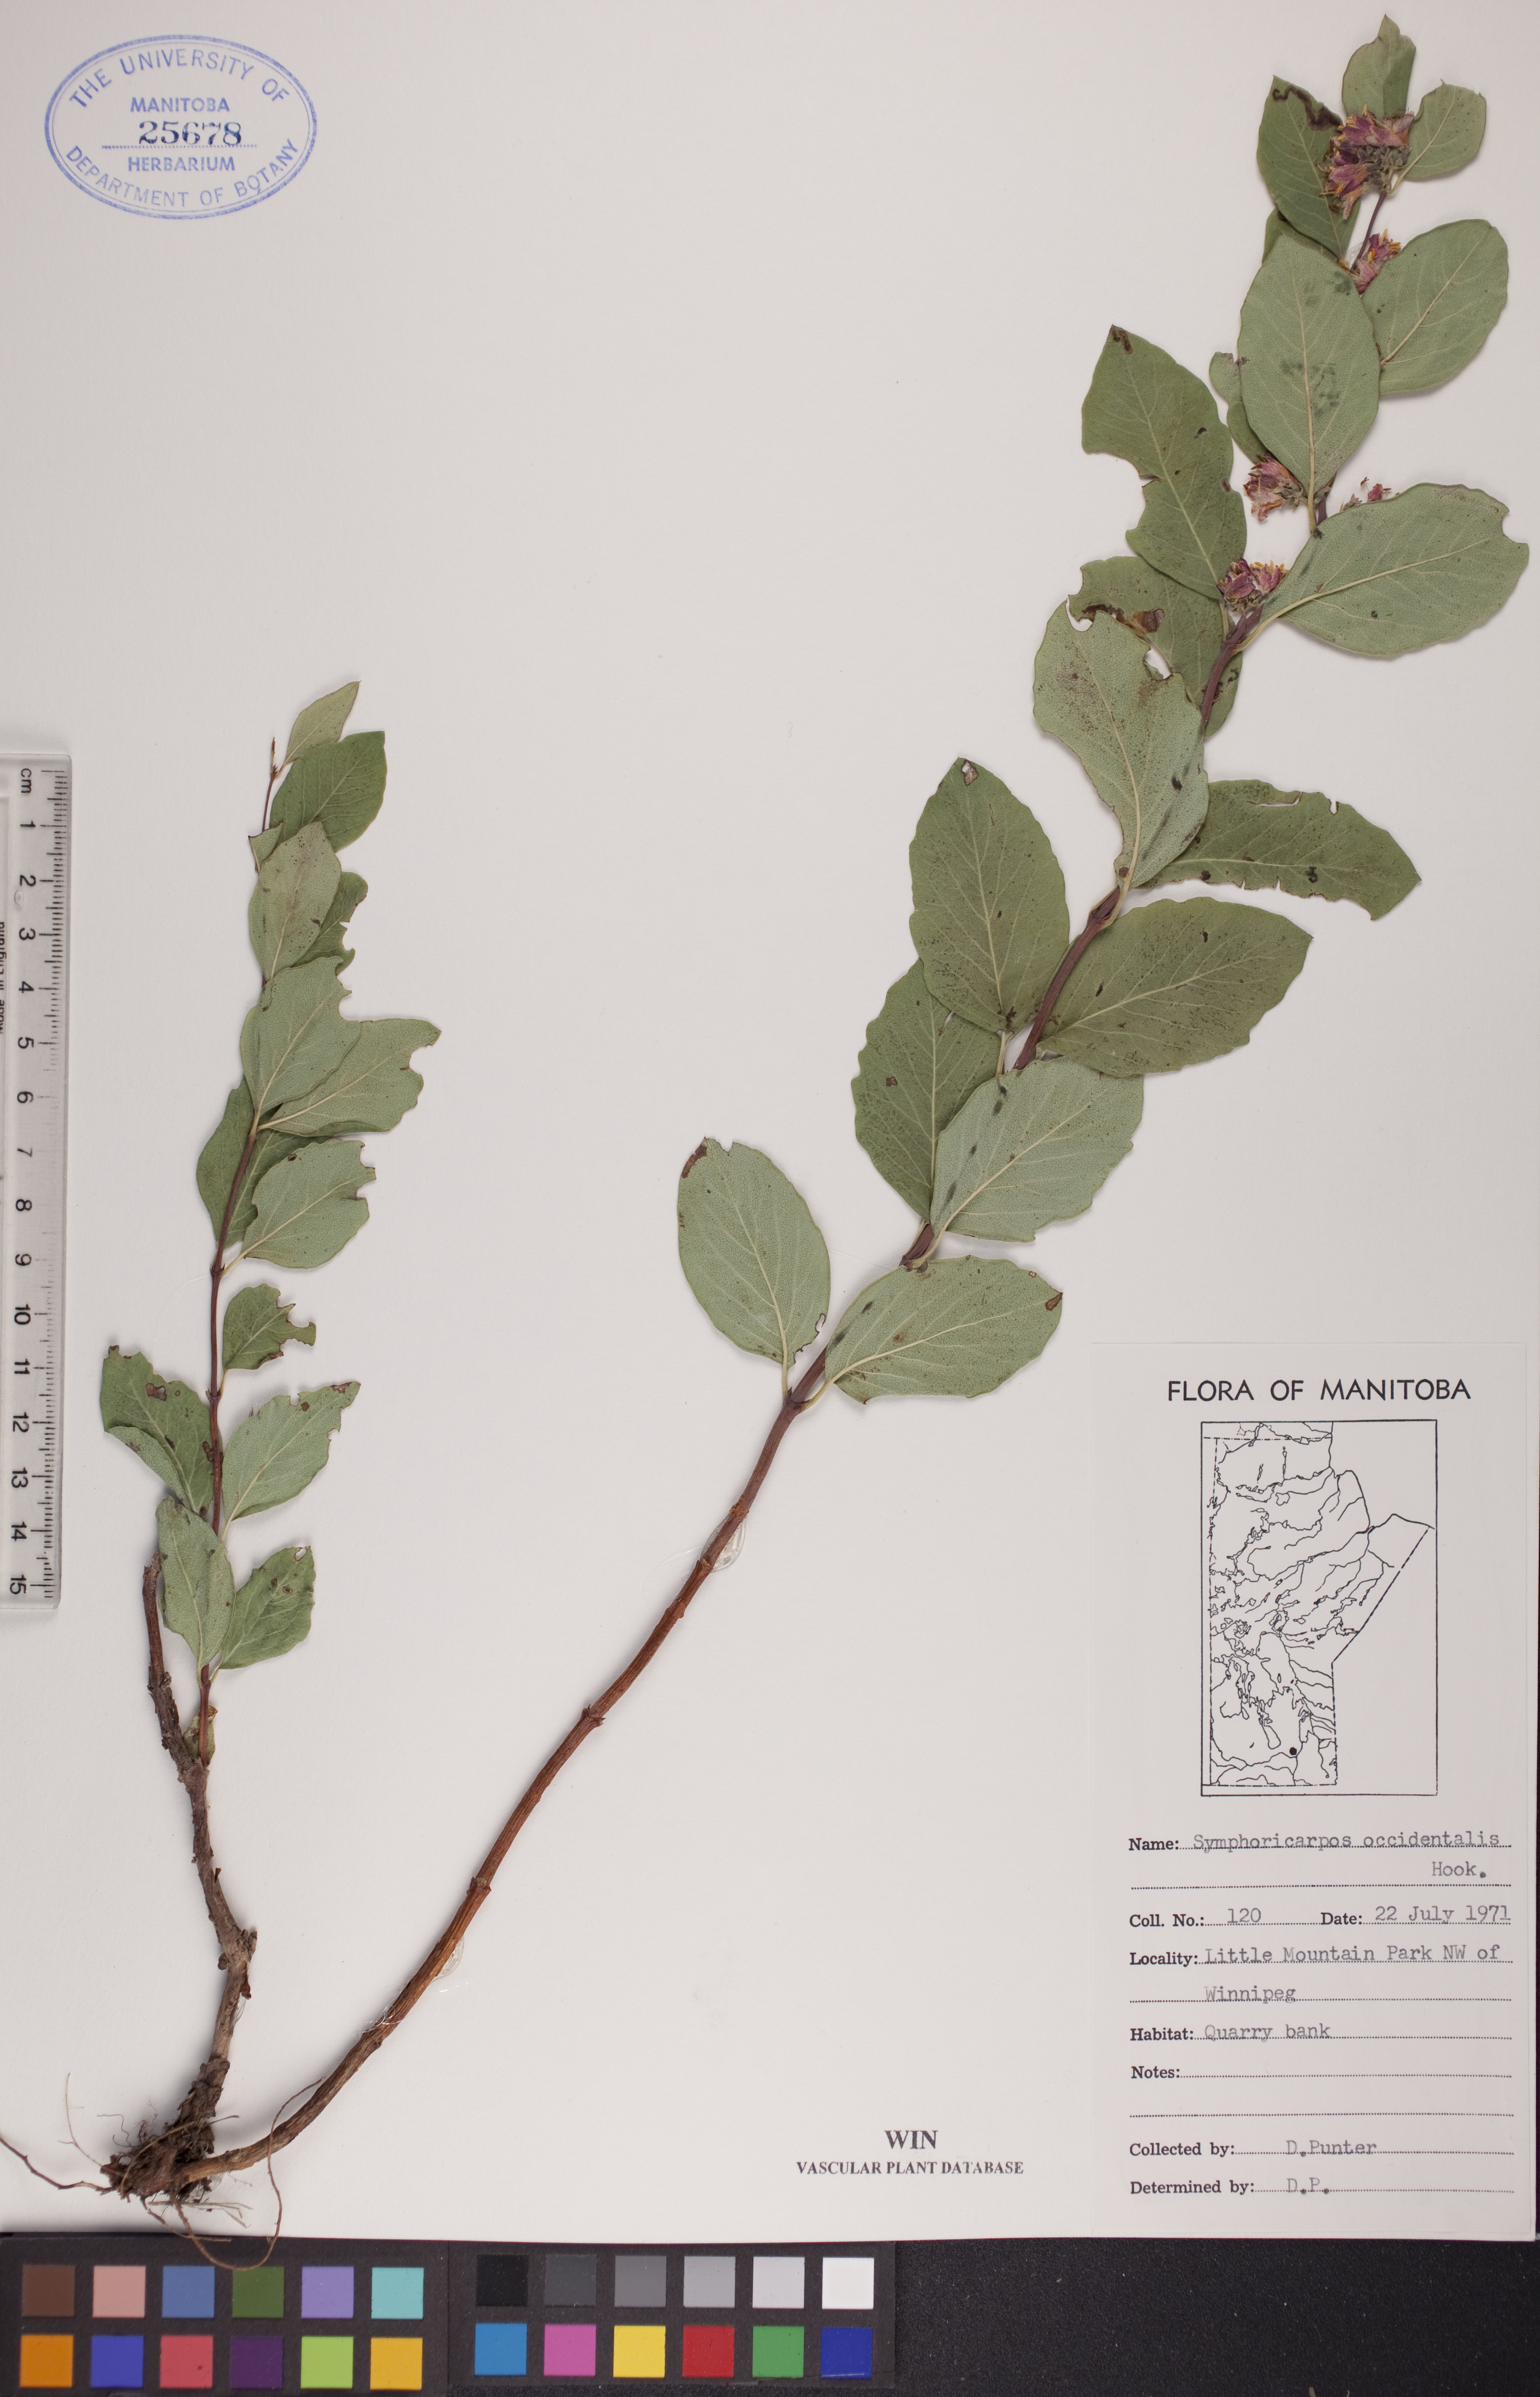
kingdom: Plantae
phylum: Tracheophyta
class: Magnoliopsida
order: Dipsacales
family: Caprifoliaceae
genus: Symphoricarpos
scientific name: Symphoricarpos occidentalis
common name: Wolfberry
